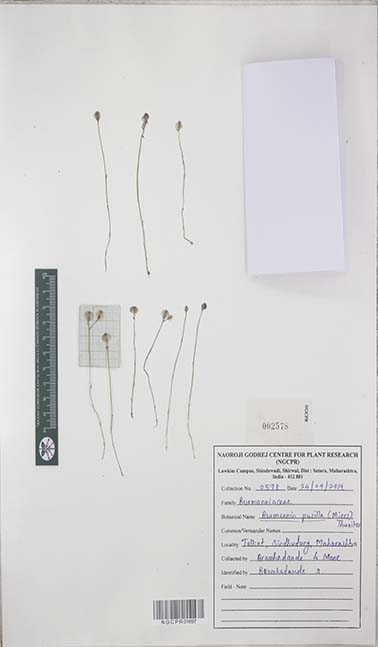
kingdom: Plantae
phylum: Tracheophyta
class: Liliopsida
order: Dioscoreales
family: Burmanniaceae
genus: Burmannia
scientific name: Burmannia pusilla
